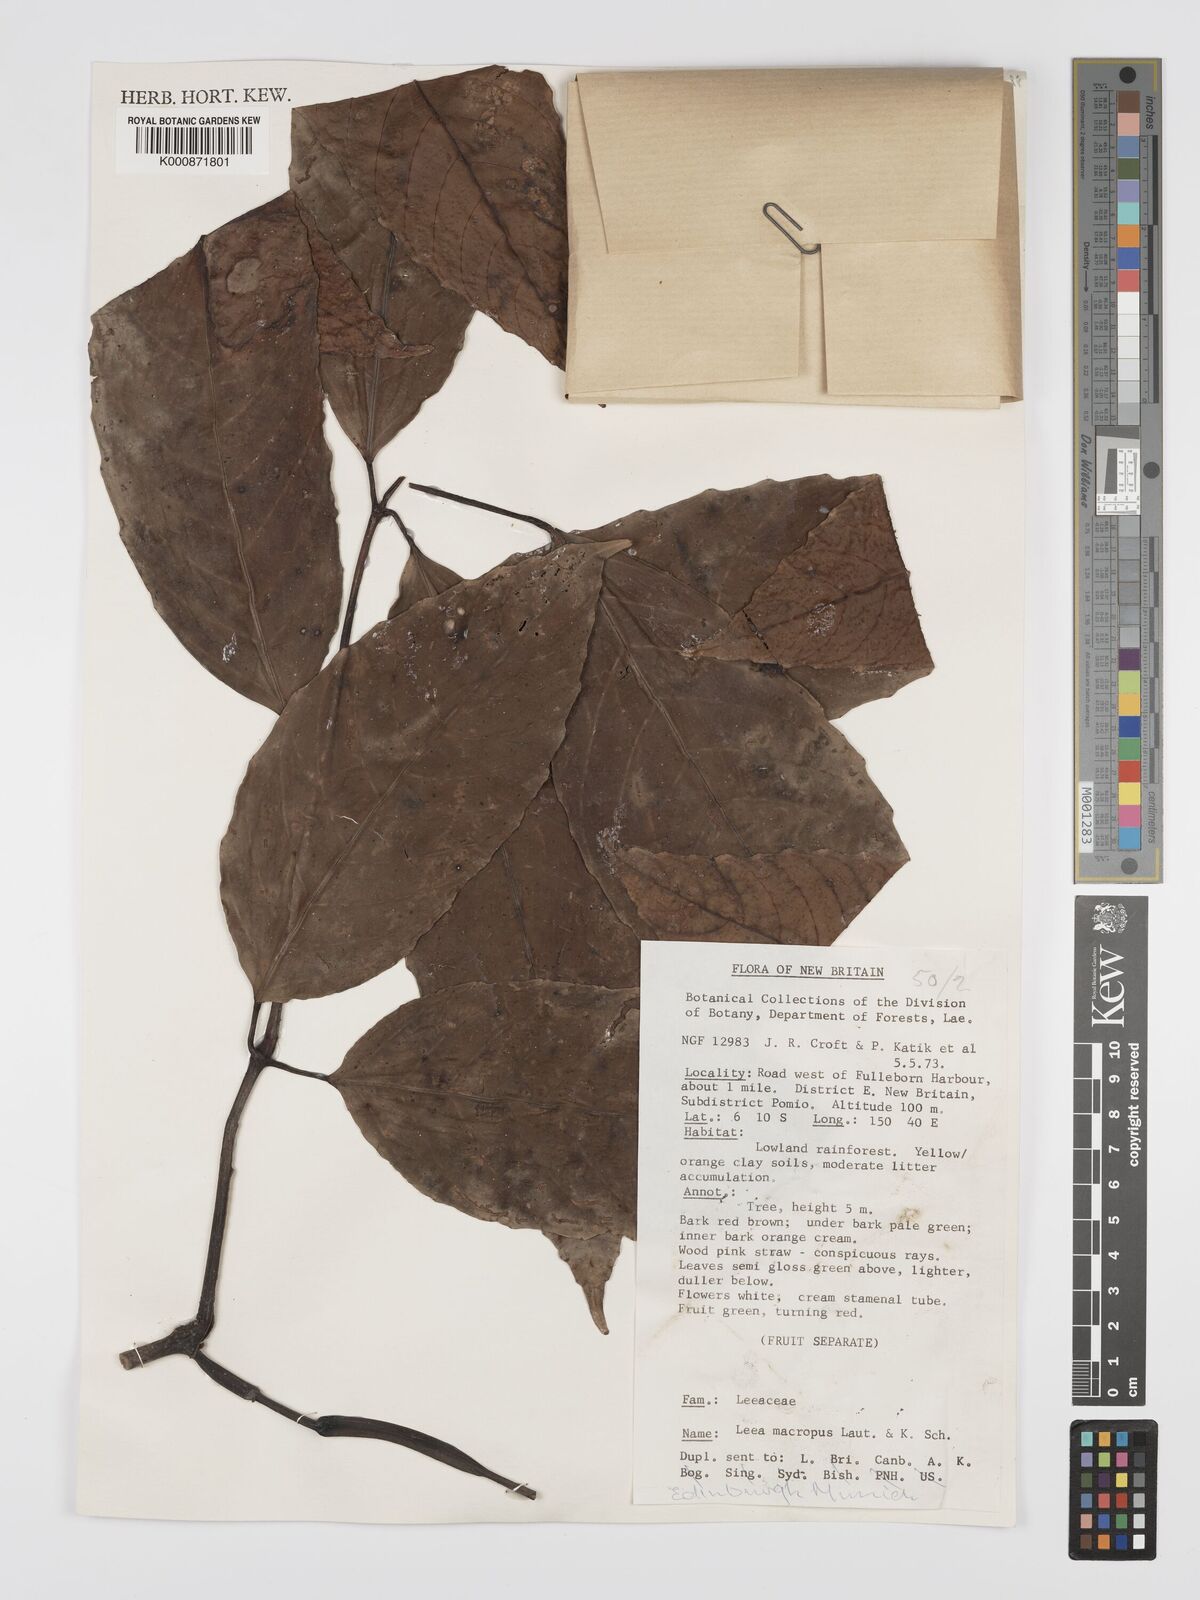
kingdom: Plantae
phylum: Tracheophyta
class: Magnoliopsida
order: Vitales
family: Vitaceae
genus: Leea
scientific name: Leea macropus
